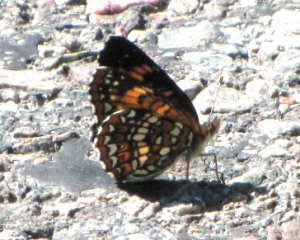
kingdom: Animalia
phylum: Arthropoda
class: Insecta
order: Lepidoptera
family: Nymphalidae
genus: Chlosyne
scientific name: Chlosyne harrisii
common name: Harris's Checkerspot
